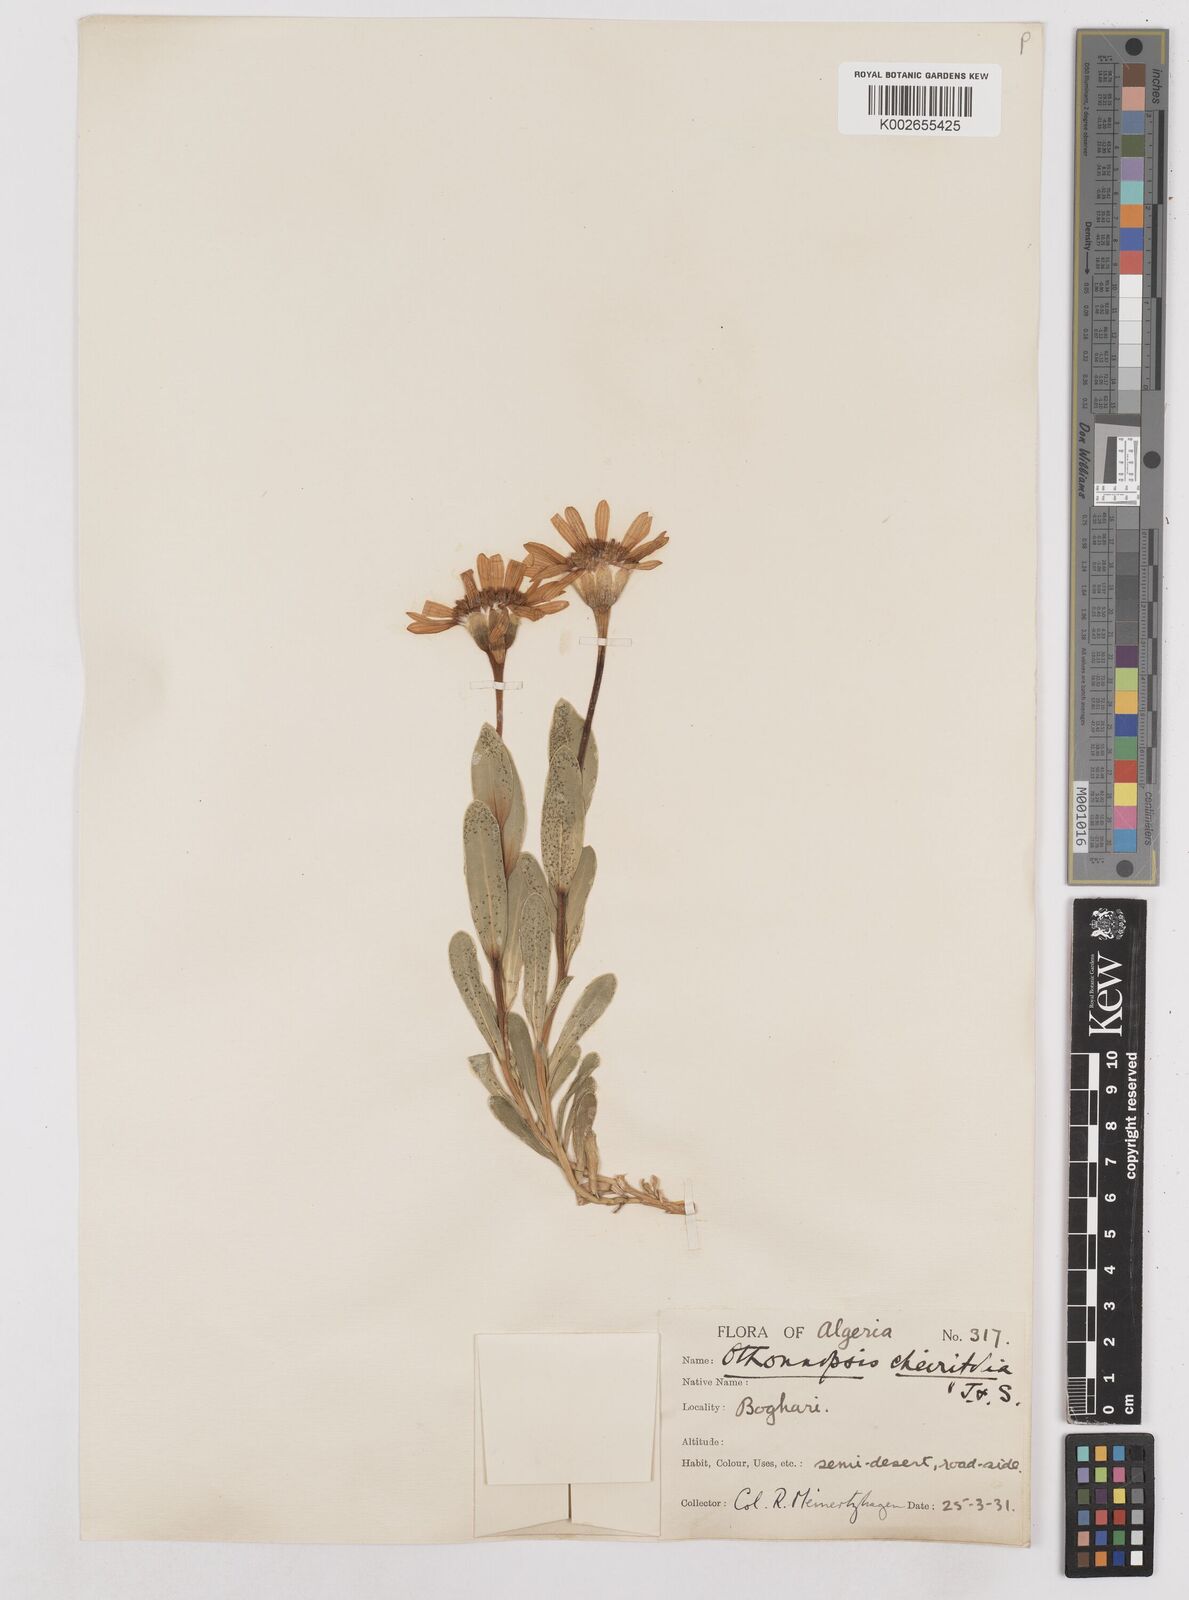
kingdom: Plantae
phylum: Tracheophyta
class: Magnoliopsida
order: Asterales
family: Asteraceae
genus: Hertia
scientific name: Hertia cheirifolia
